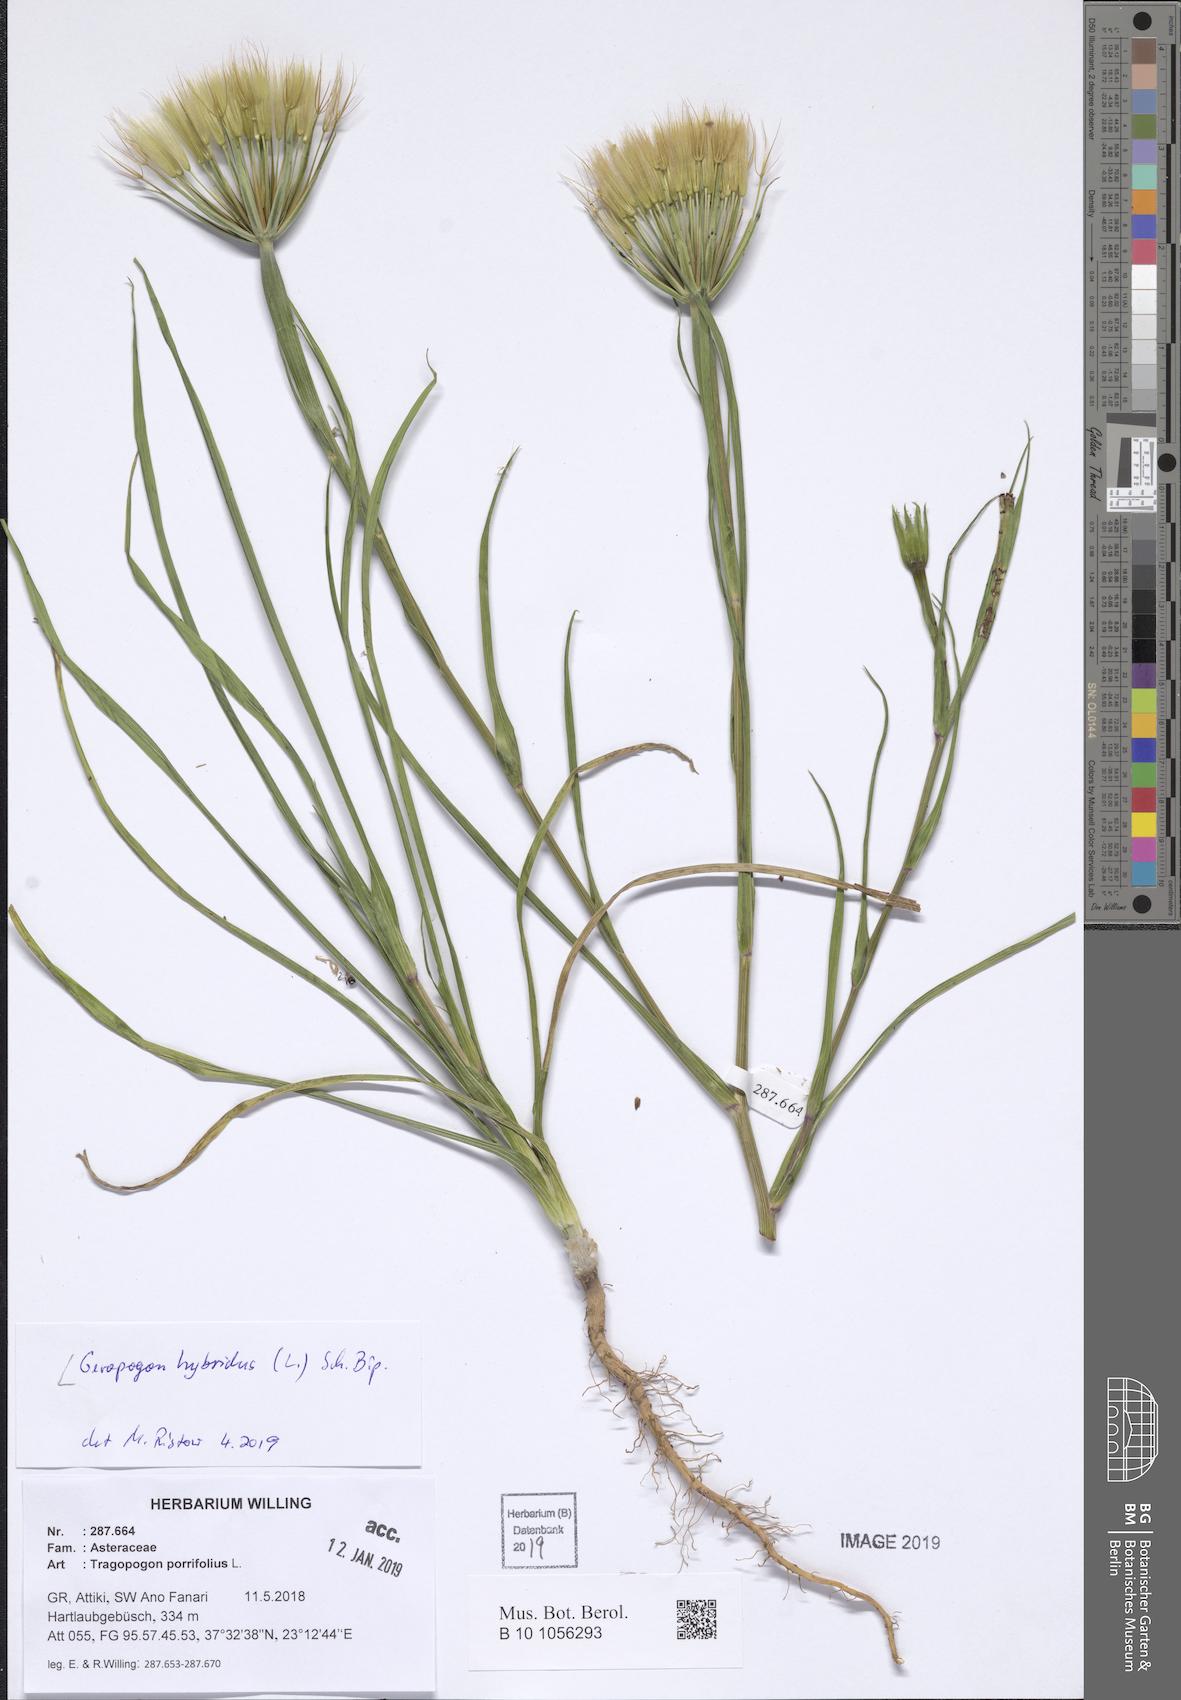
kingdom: Plantae
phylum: Tracheophyta
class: Magnoliopsida
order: Asterales
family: Asteraceae
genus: Geropogon
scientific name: Geropogon hybridus
